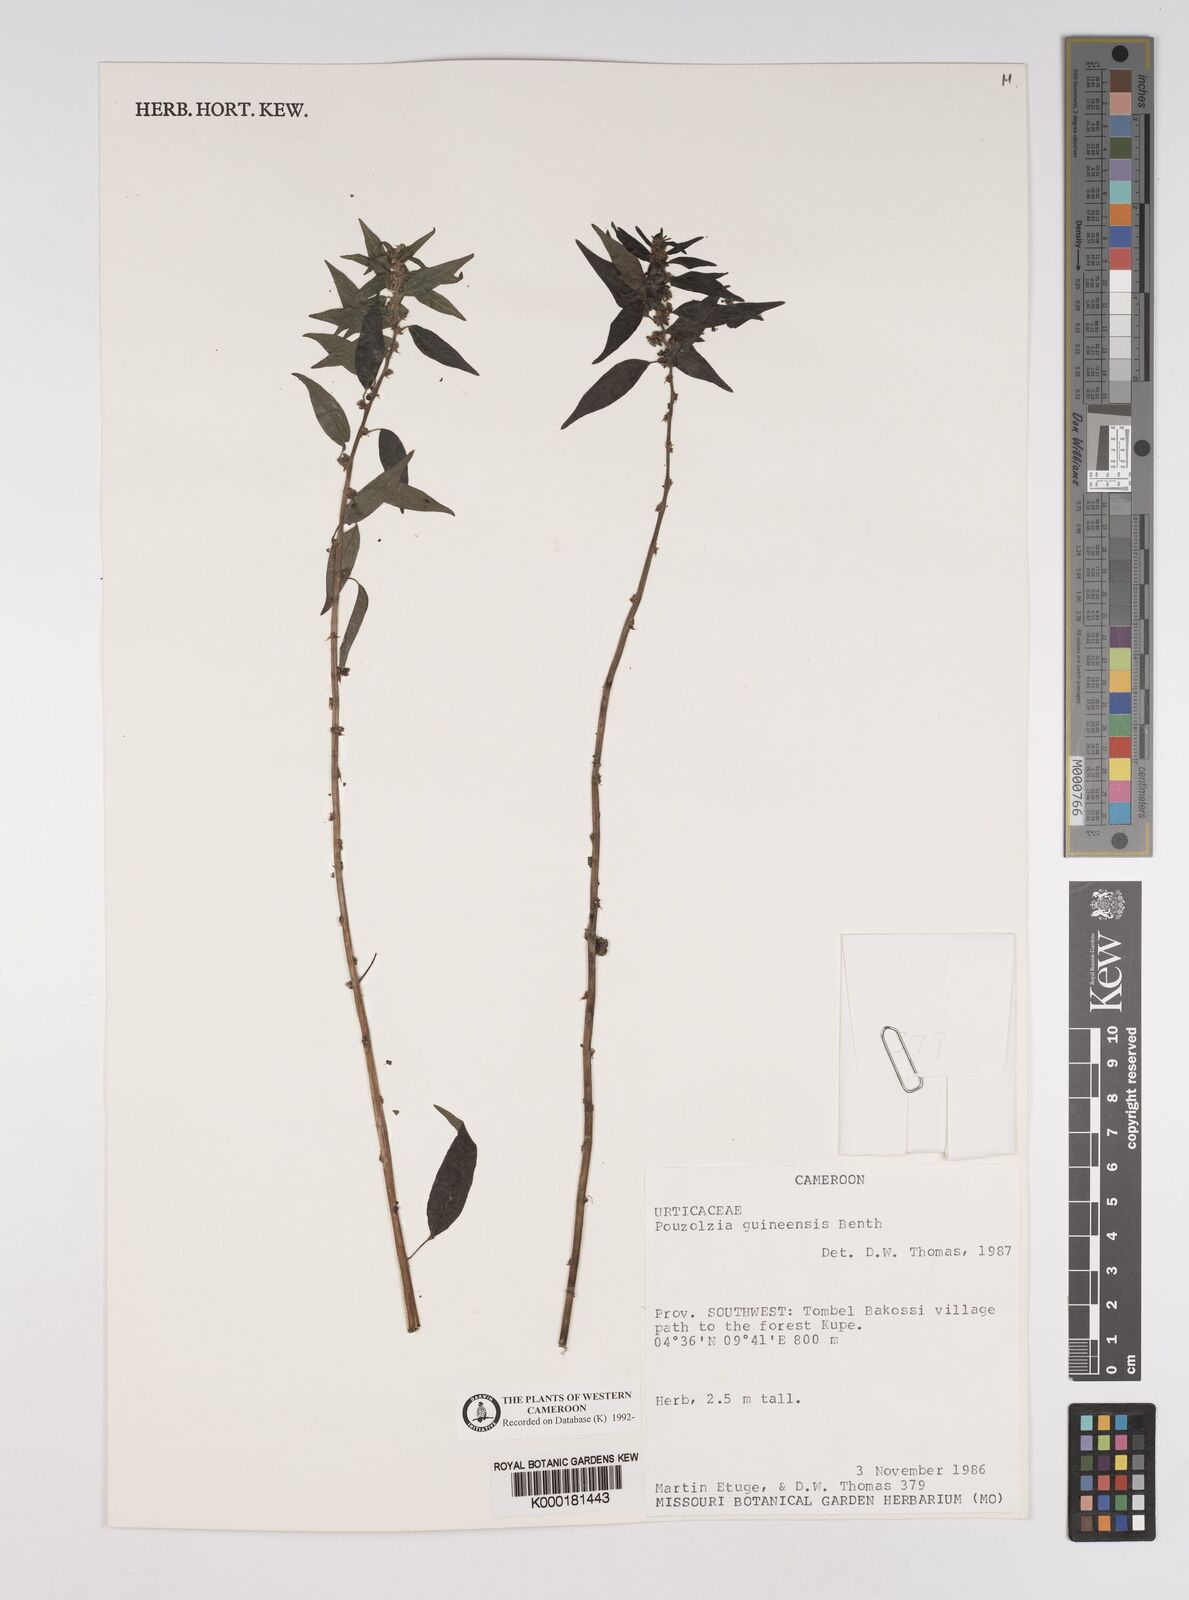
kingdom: Plantae
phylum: Tracheophyta
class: Magnoliopsida
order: Rosales
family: Urticaceae
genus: Pouzolzia
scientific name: Pouzolzia guineensis
